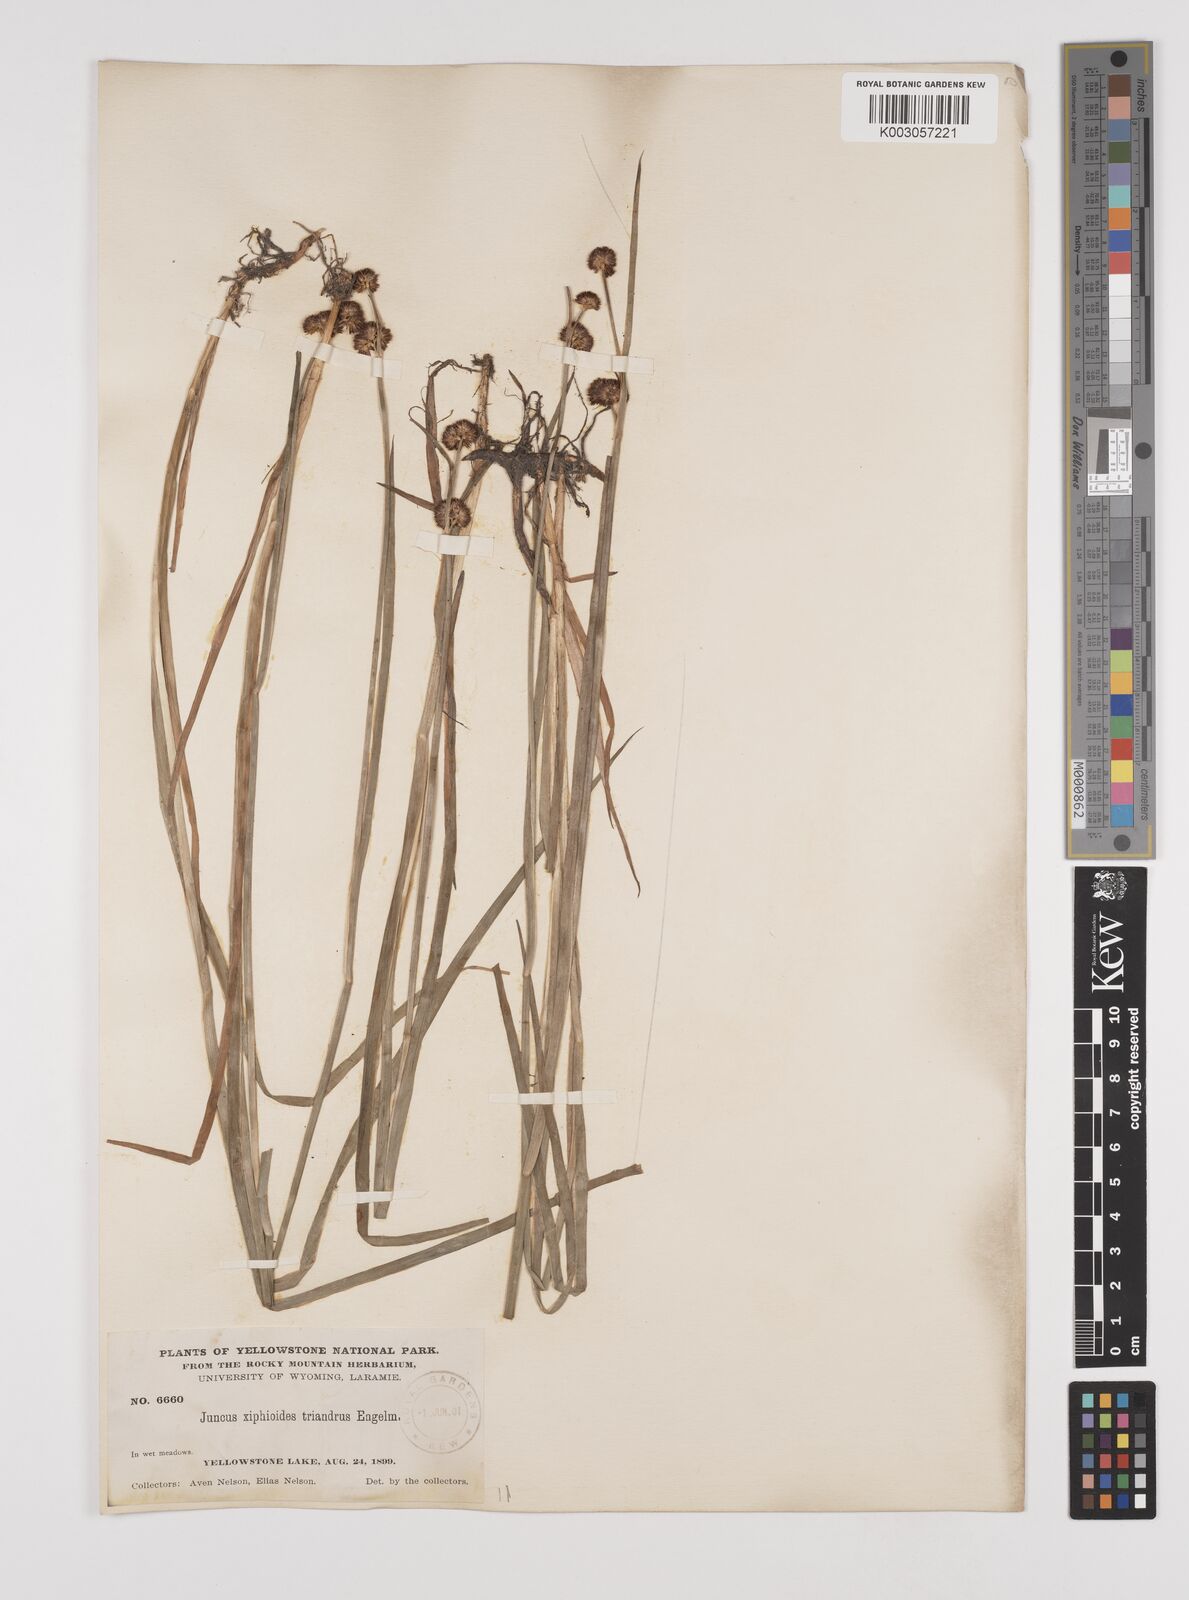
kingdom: Plantae
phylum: Tracheophyta
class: Liliopsida
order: Poales
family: Juncaceae
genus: Juncus
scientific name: Juncus ensifolius
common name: Sword-leaved rush
